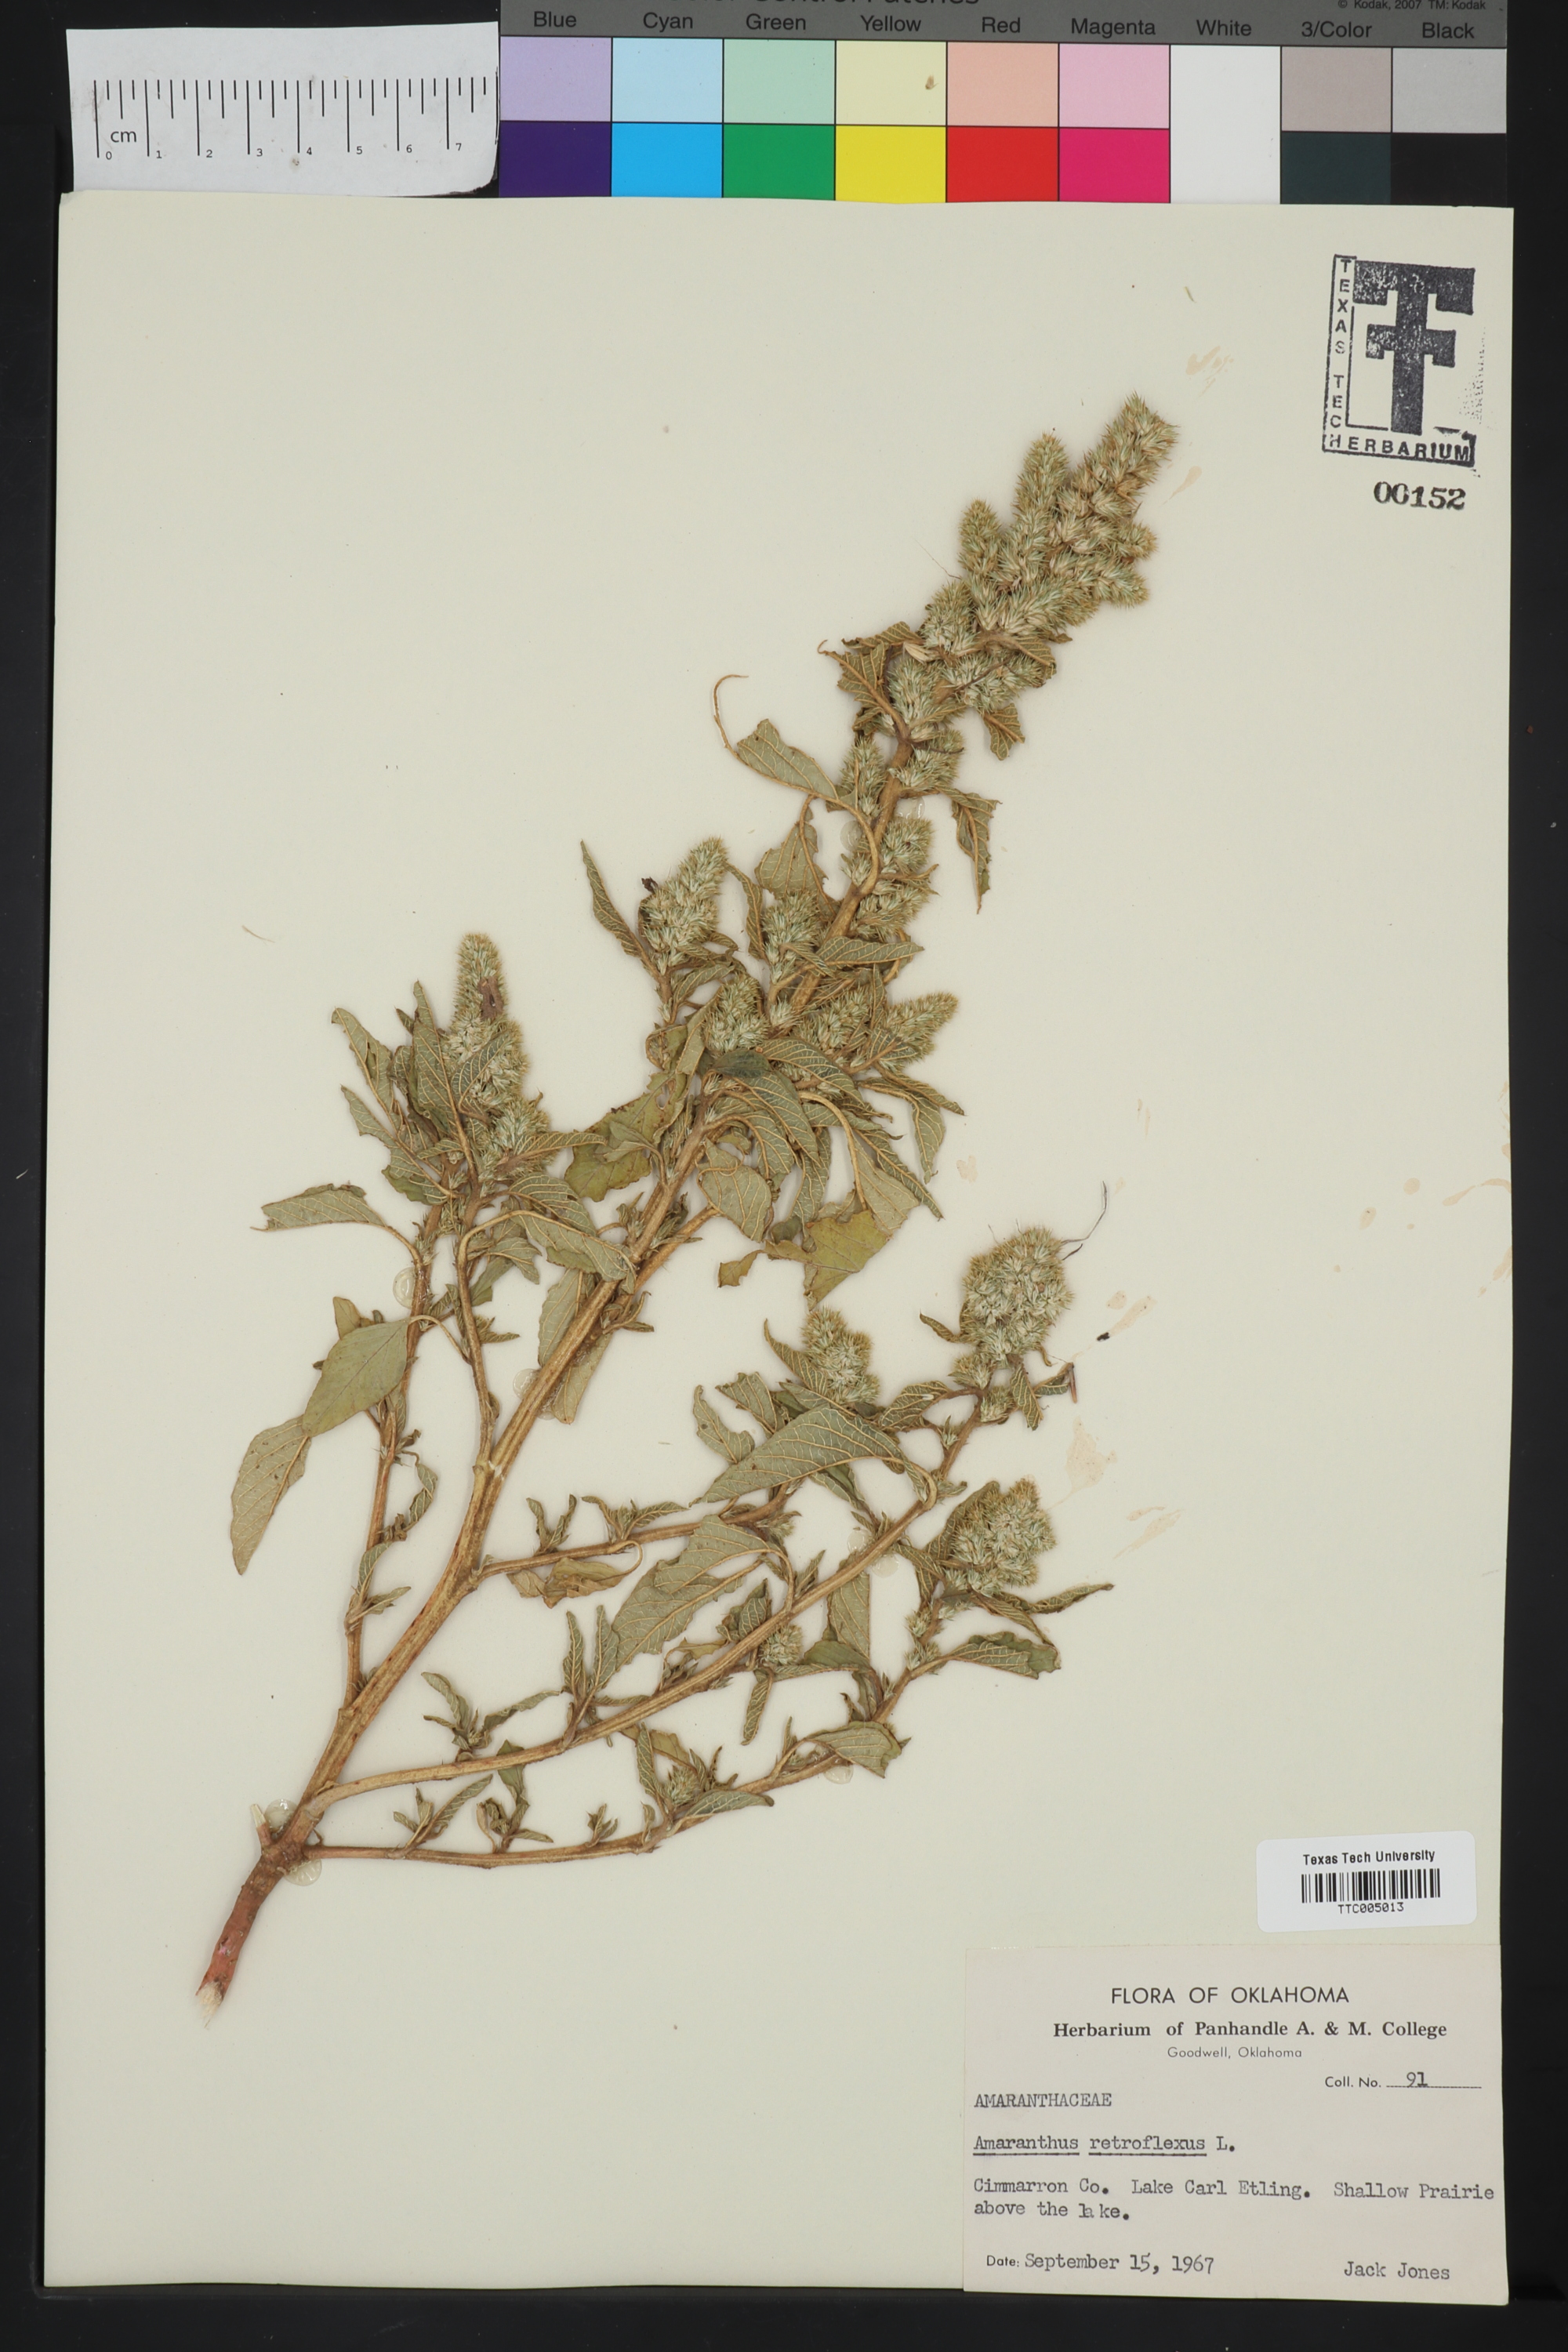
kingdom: Plantae
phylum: Tracheophyta
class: Magnoliopsida
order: Caryophyllales
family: Amaranthaceae
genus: Amaranthus
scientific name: Amaranthus retroflexus
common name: Redroot amaranth
